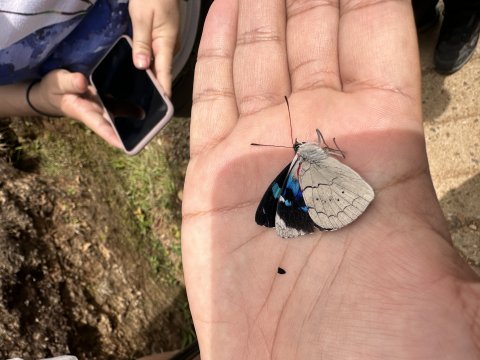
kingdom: Animalia
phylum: Arthropoda
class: Insecta
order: Lepidoptera
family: Nymphalidae
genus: Perisama
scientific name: Perisama bomplandii
